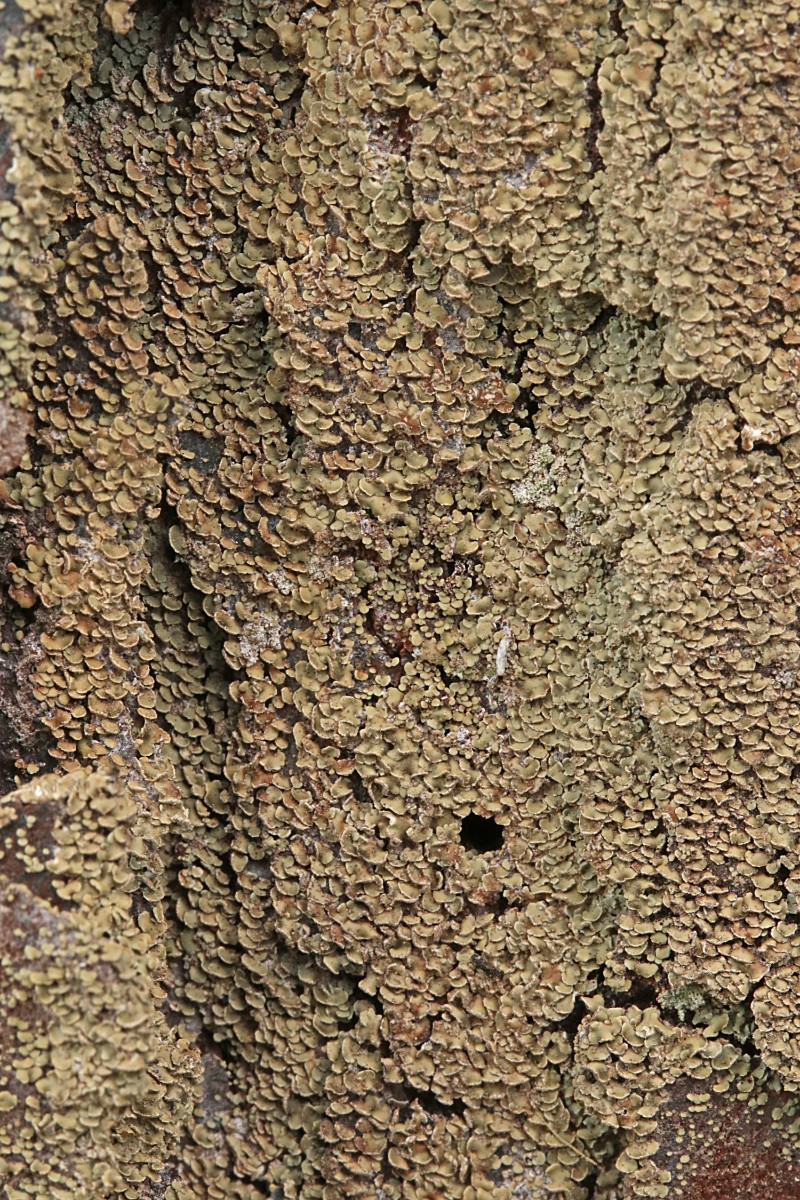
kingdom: Fungi
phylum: Ascomycota
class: Lecanoromycetes
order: Umbilicariales
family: Ophioparmaceae
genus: Hypocenomyce
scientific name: Hypocenomyce scalaris
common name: småskællet muslinglav
